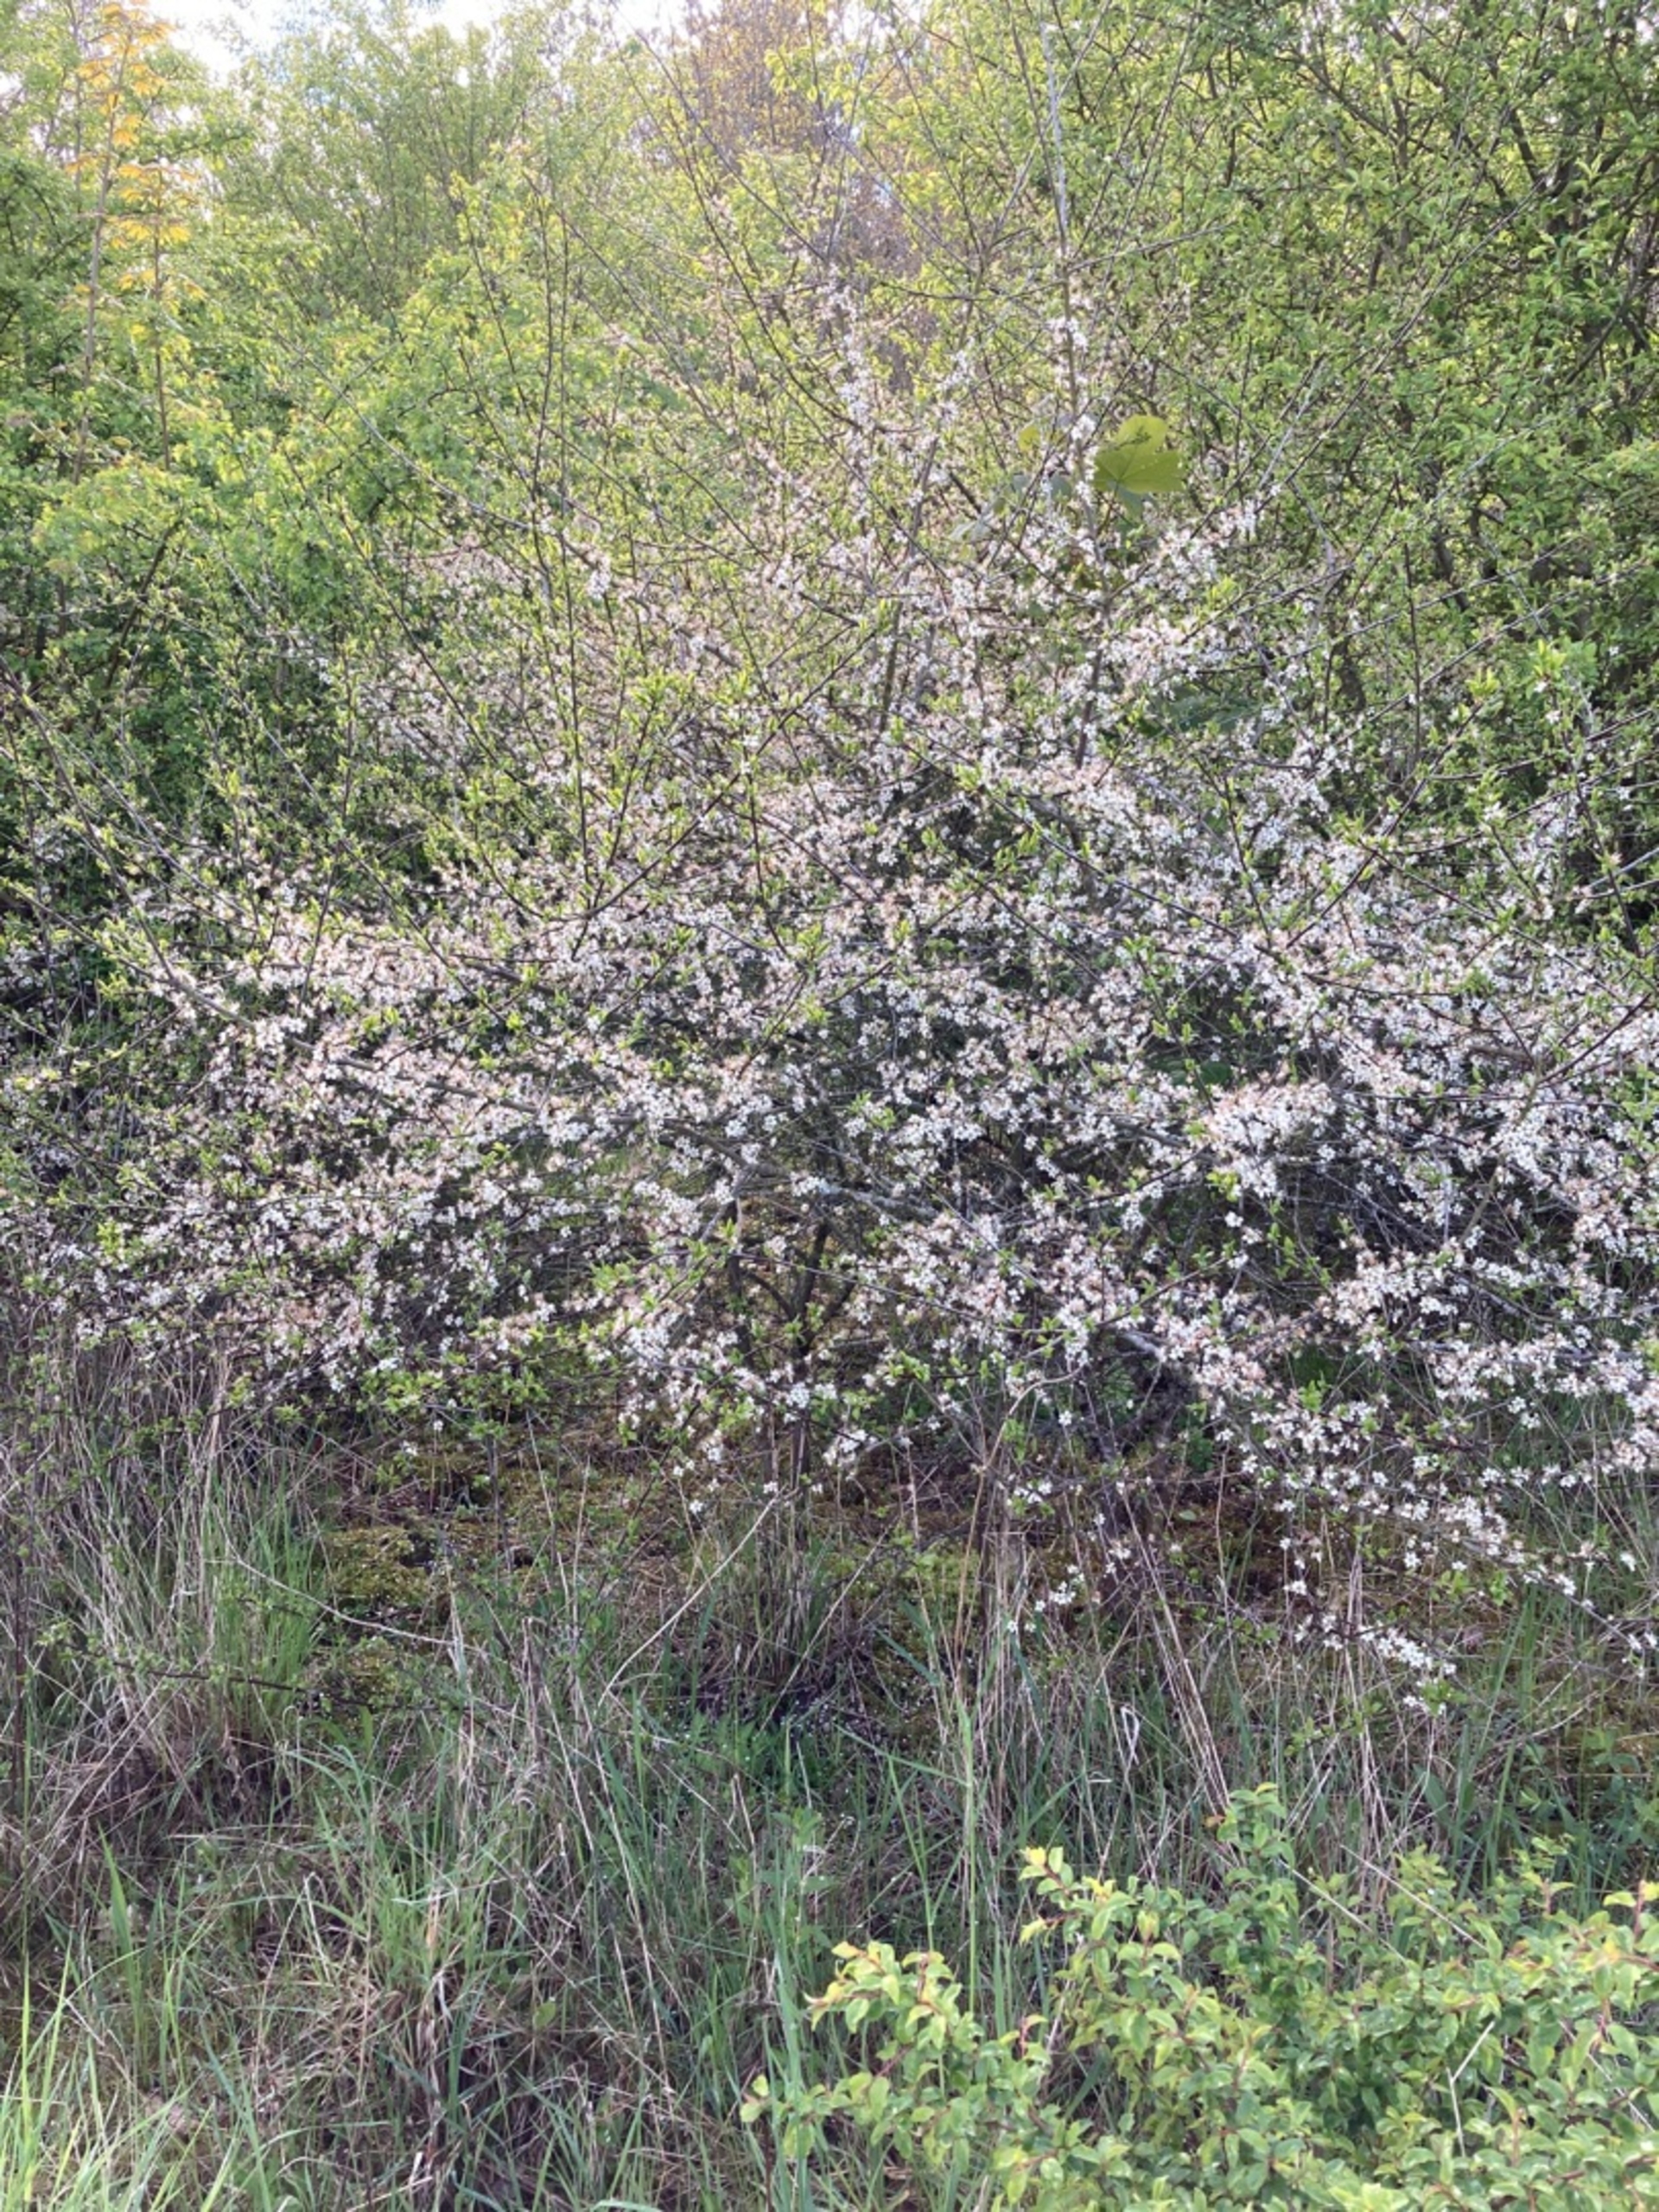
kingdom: Plantae
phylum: Tracheophyta
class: Magnoliopsida
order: Rosales
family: Rosaceae
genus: Prunus
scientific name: Prunus cerasifera
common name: Mirabel
